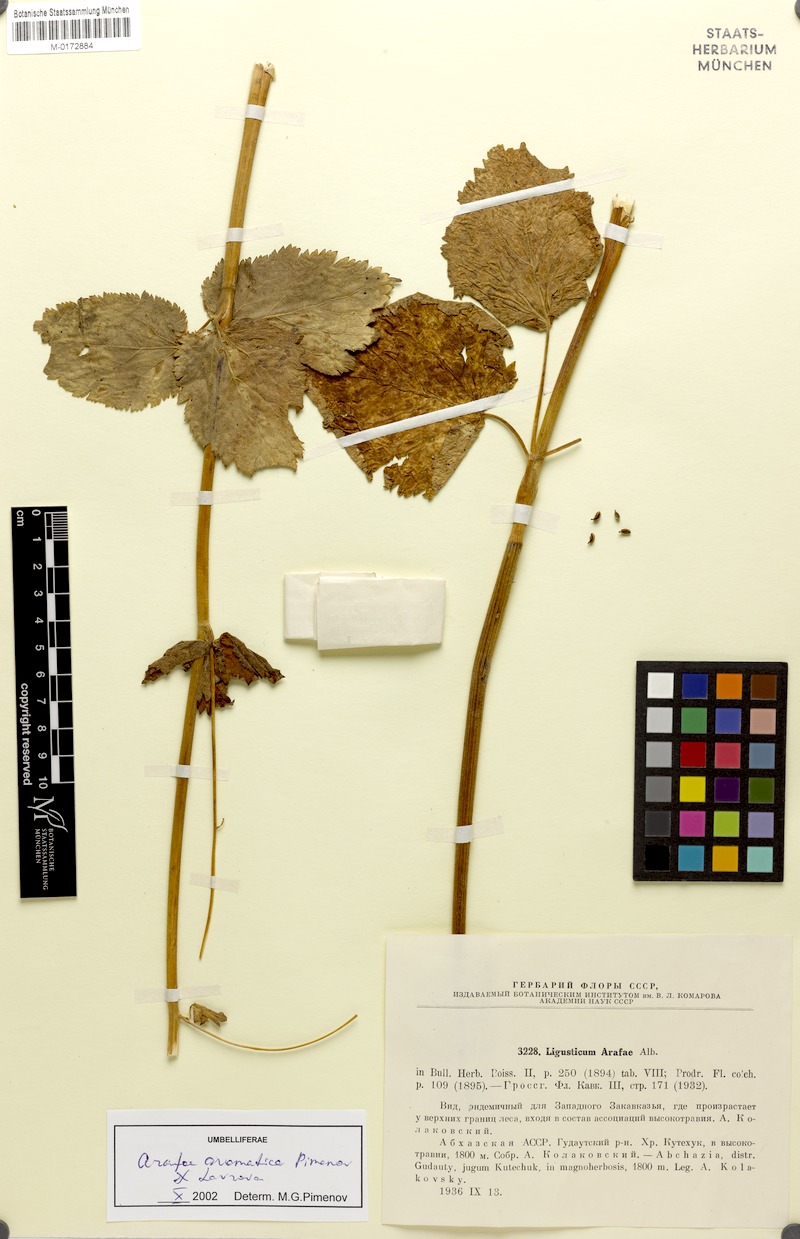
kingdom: Plantae
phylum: Tracheophyta
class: Magnoliopsida
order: Apiales
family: Apiaceae
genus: Arafoe
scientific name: Arafoe aromatica
